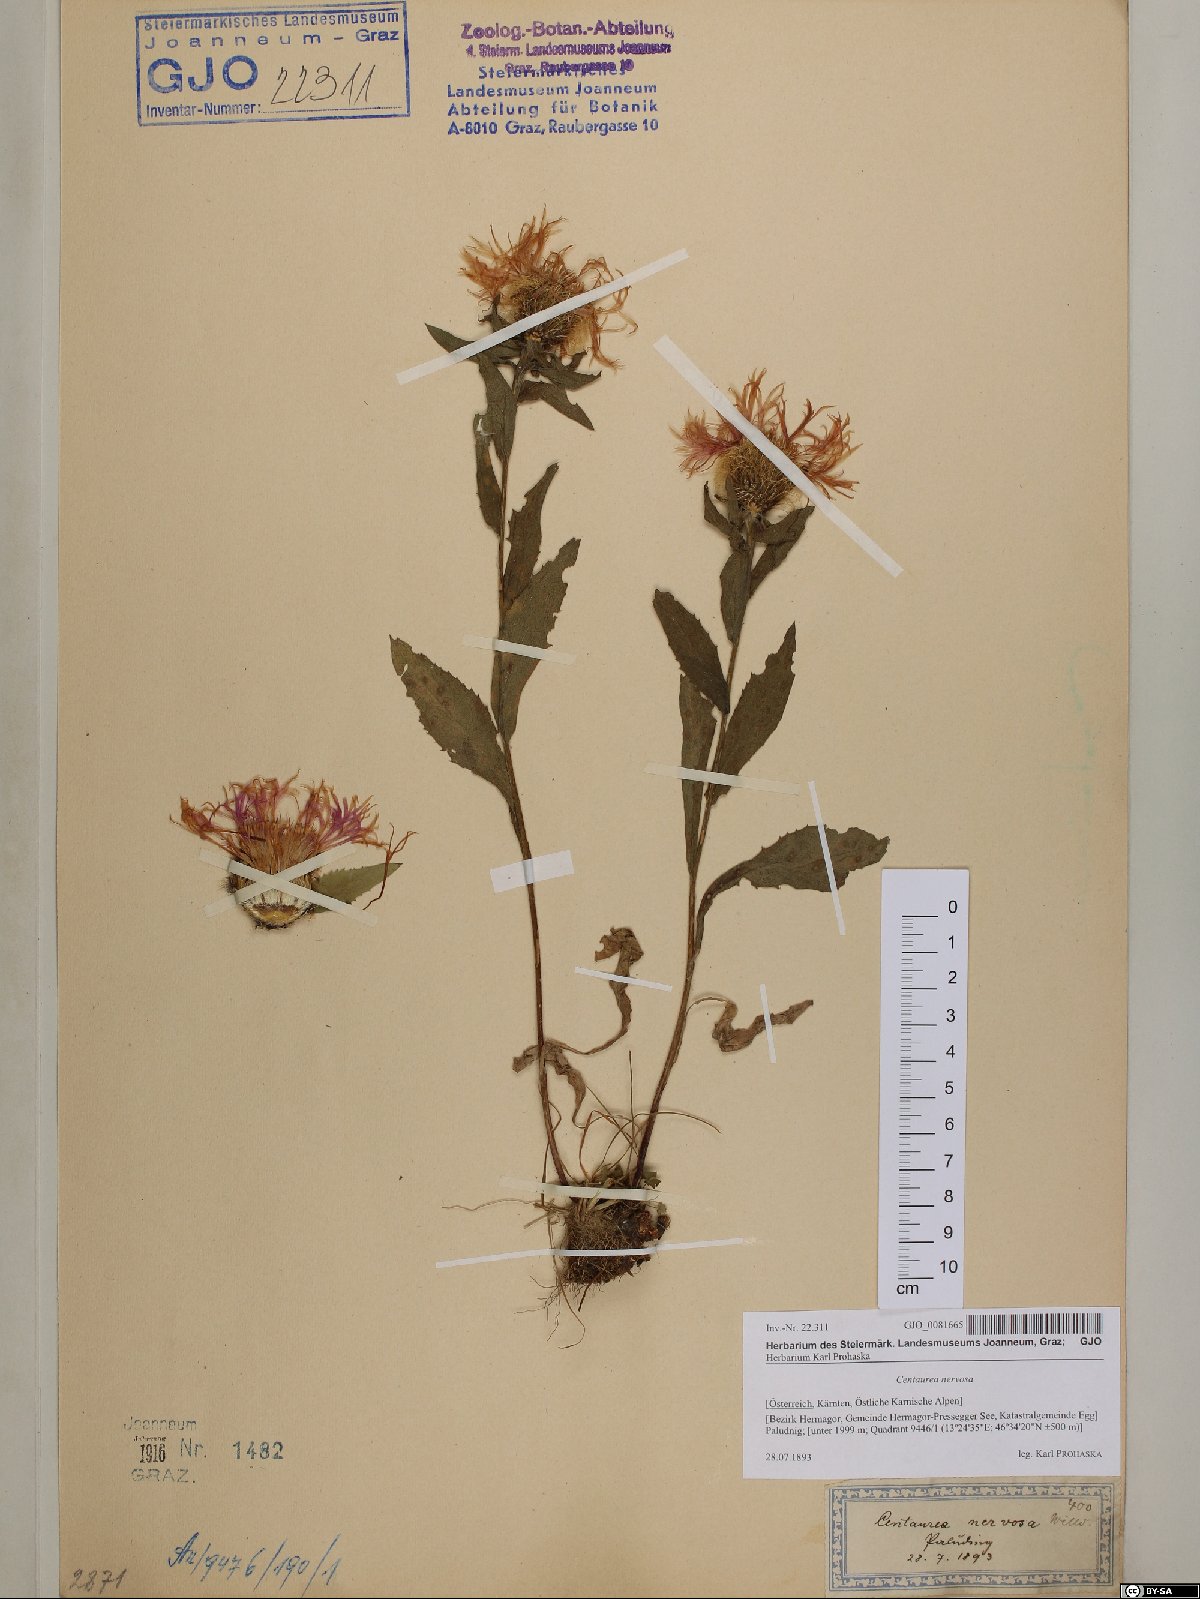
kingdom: Plantae
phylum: Tracheophyta
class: Magnoliopsida
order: Asterales
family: Asteraceae
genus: Centaurea
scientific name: Centaurea nervosa
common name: Singleflower knapweed
